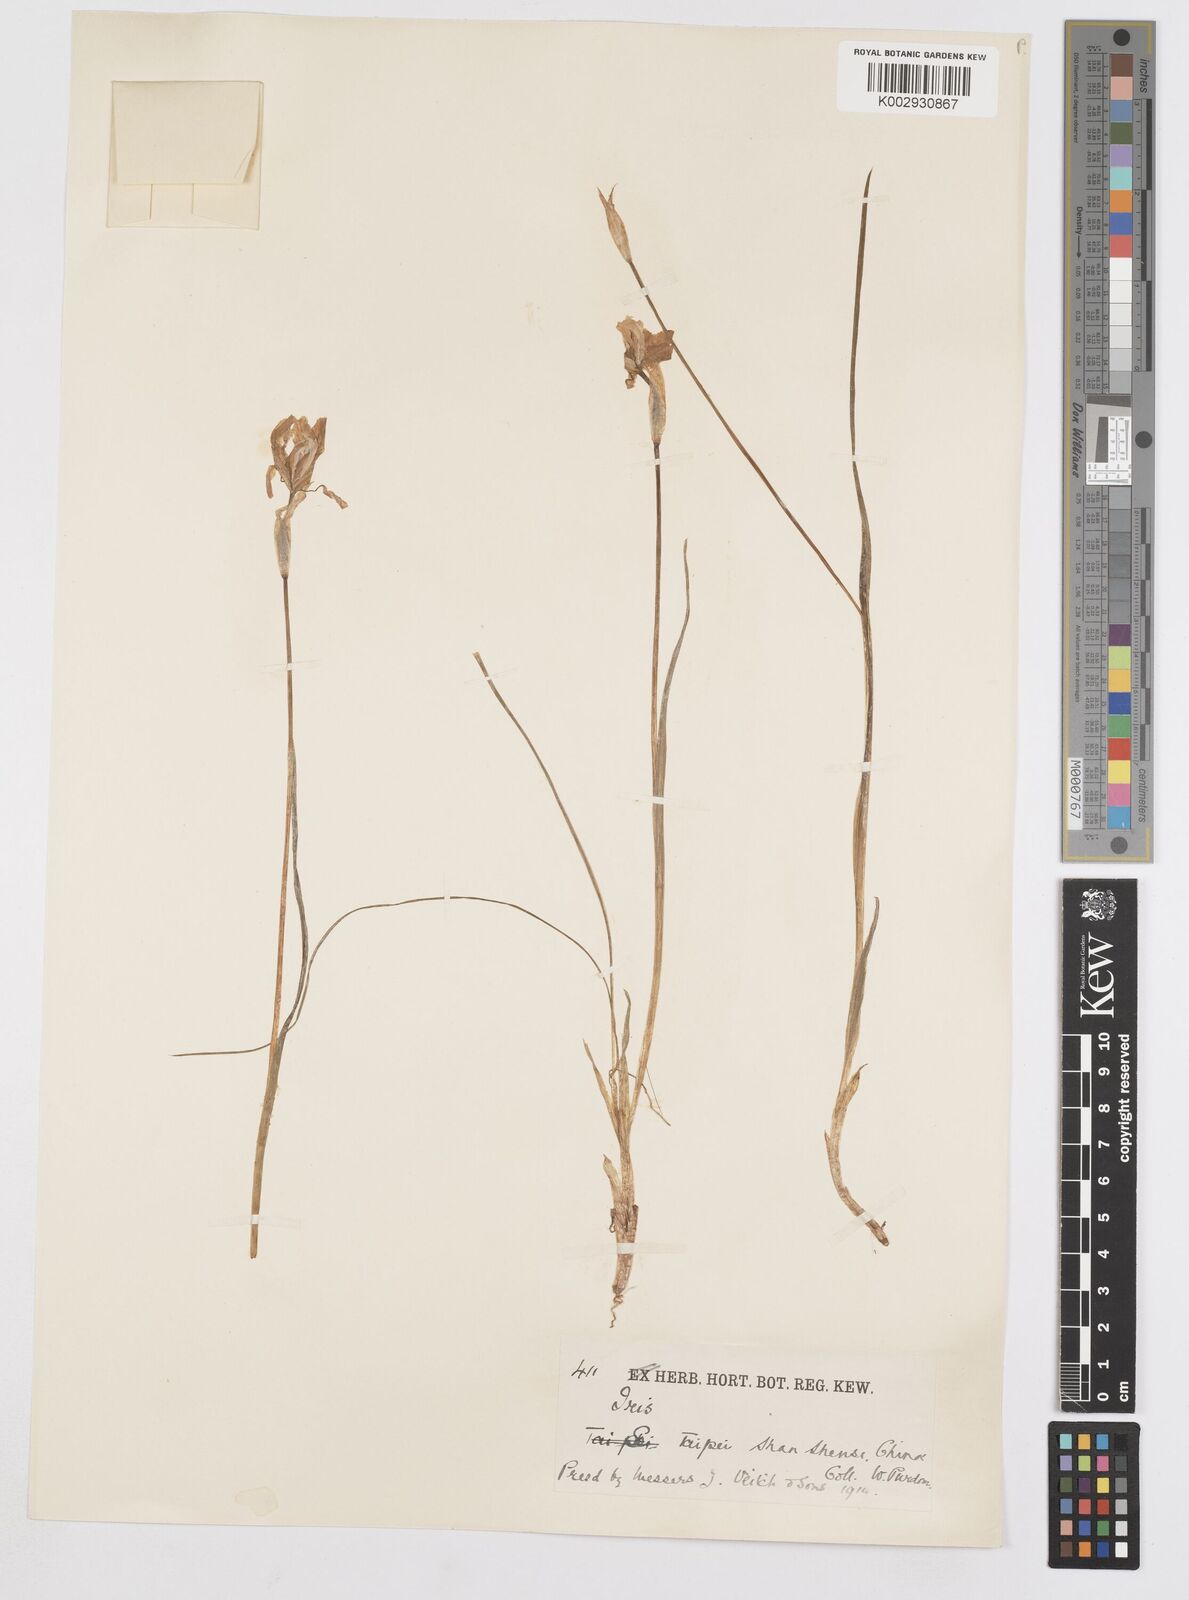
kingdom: Plantae
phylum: Tracheophyta
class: Liliopsida
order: Asparagales
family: Iridaceae
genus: Iris
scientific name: Iris goniocarpa
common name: Angular-fruit iris
